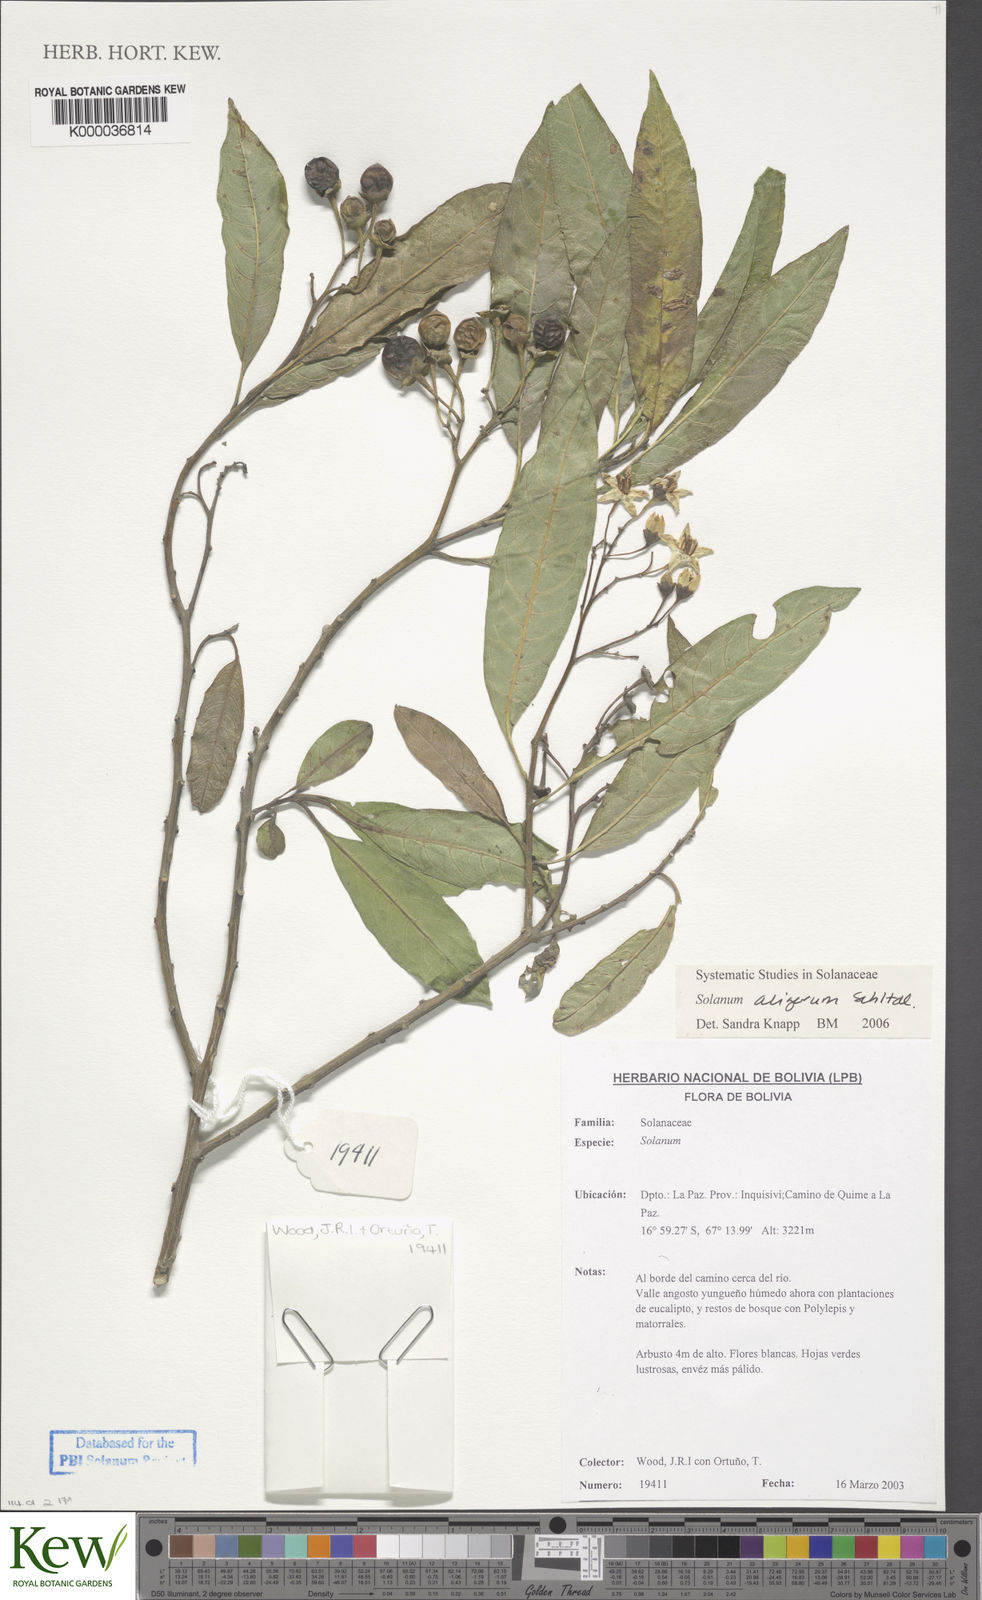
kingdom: Plantae
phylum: Tracheophyta
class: Magnoliopsida
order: Solanales
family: Solanaceae
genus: Solanum
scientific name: Solanum aligerum
